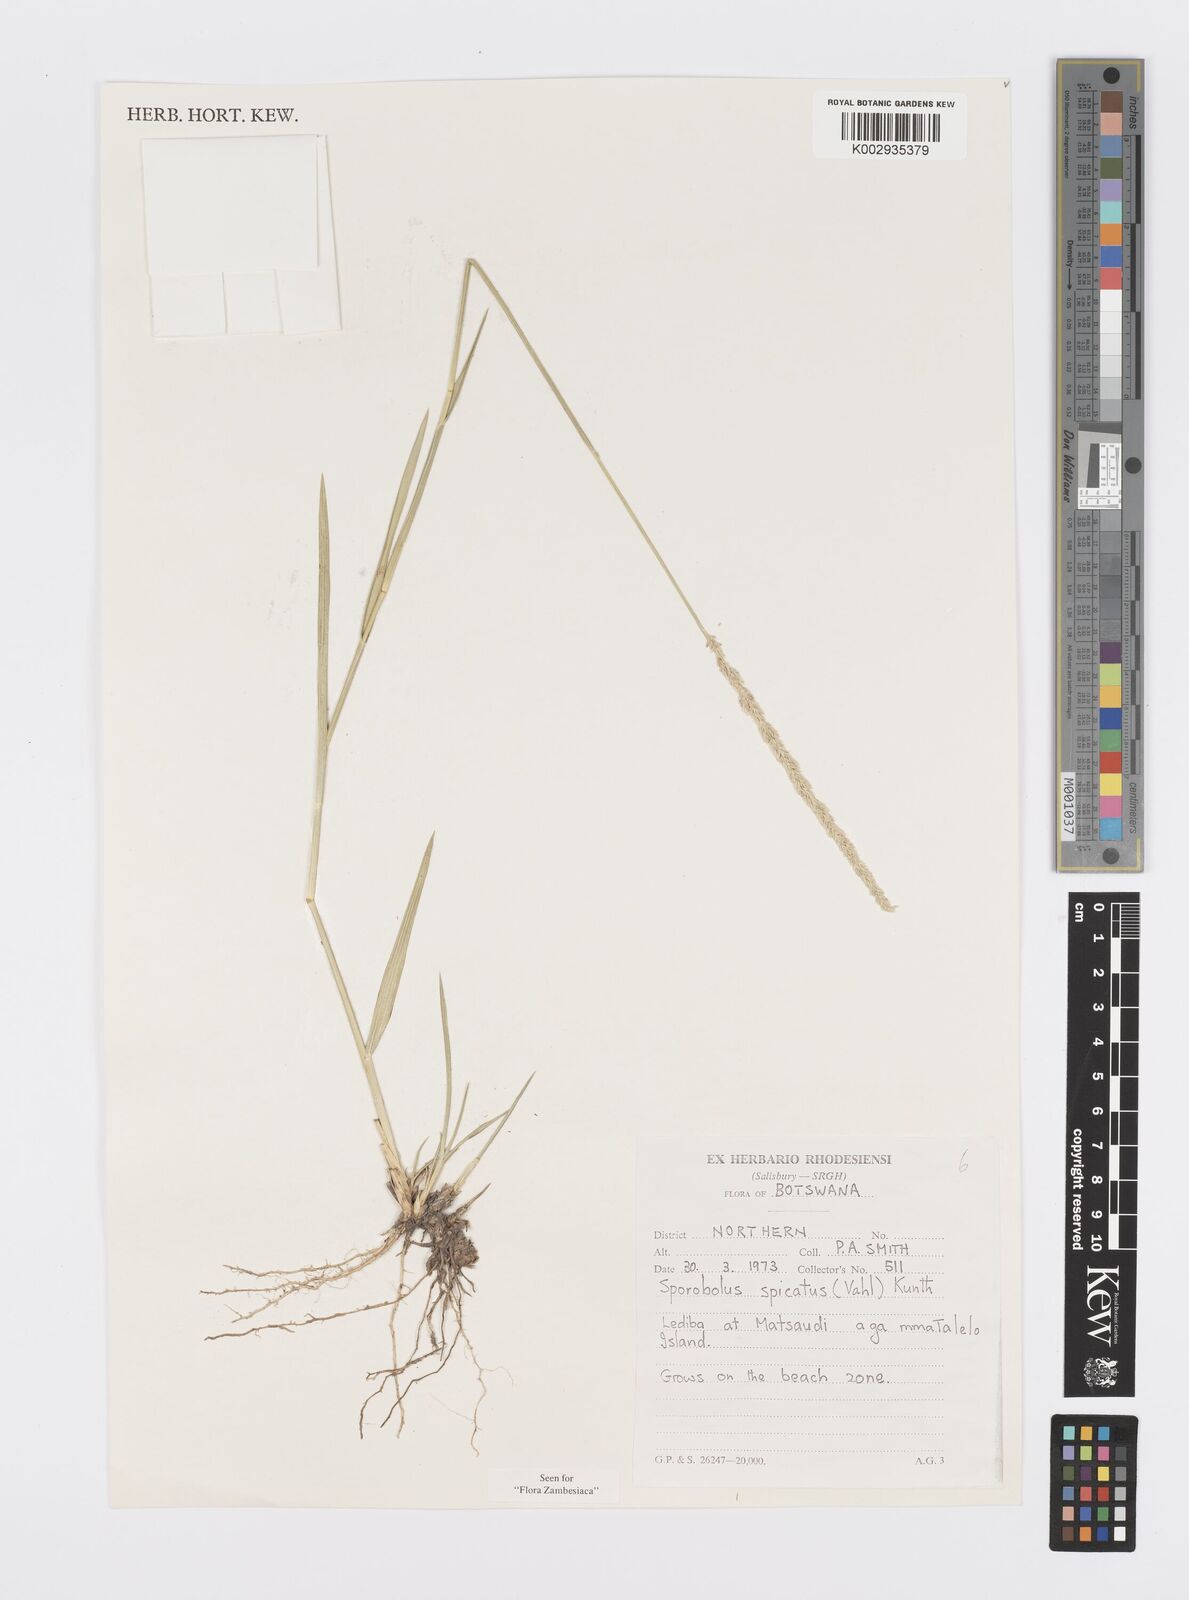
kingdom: Plantae
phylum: Tracheophyta
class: Liliopsida
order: Poales
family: Poaceae
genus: Sporobolus
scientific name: Sporobolus spicatus
